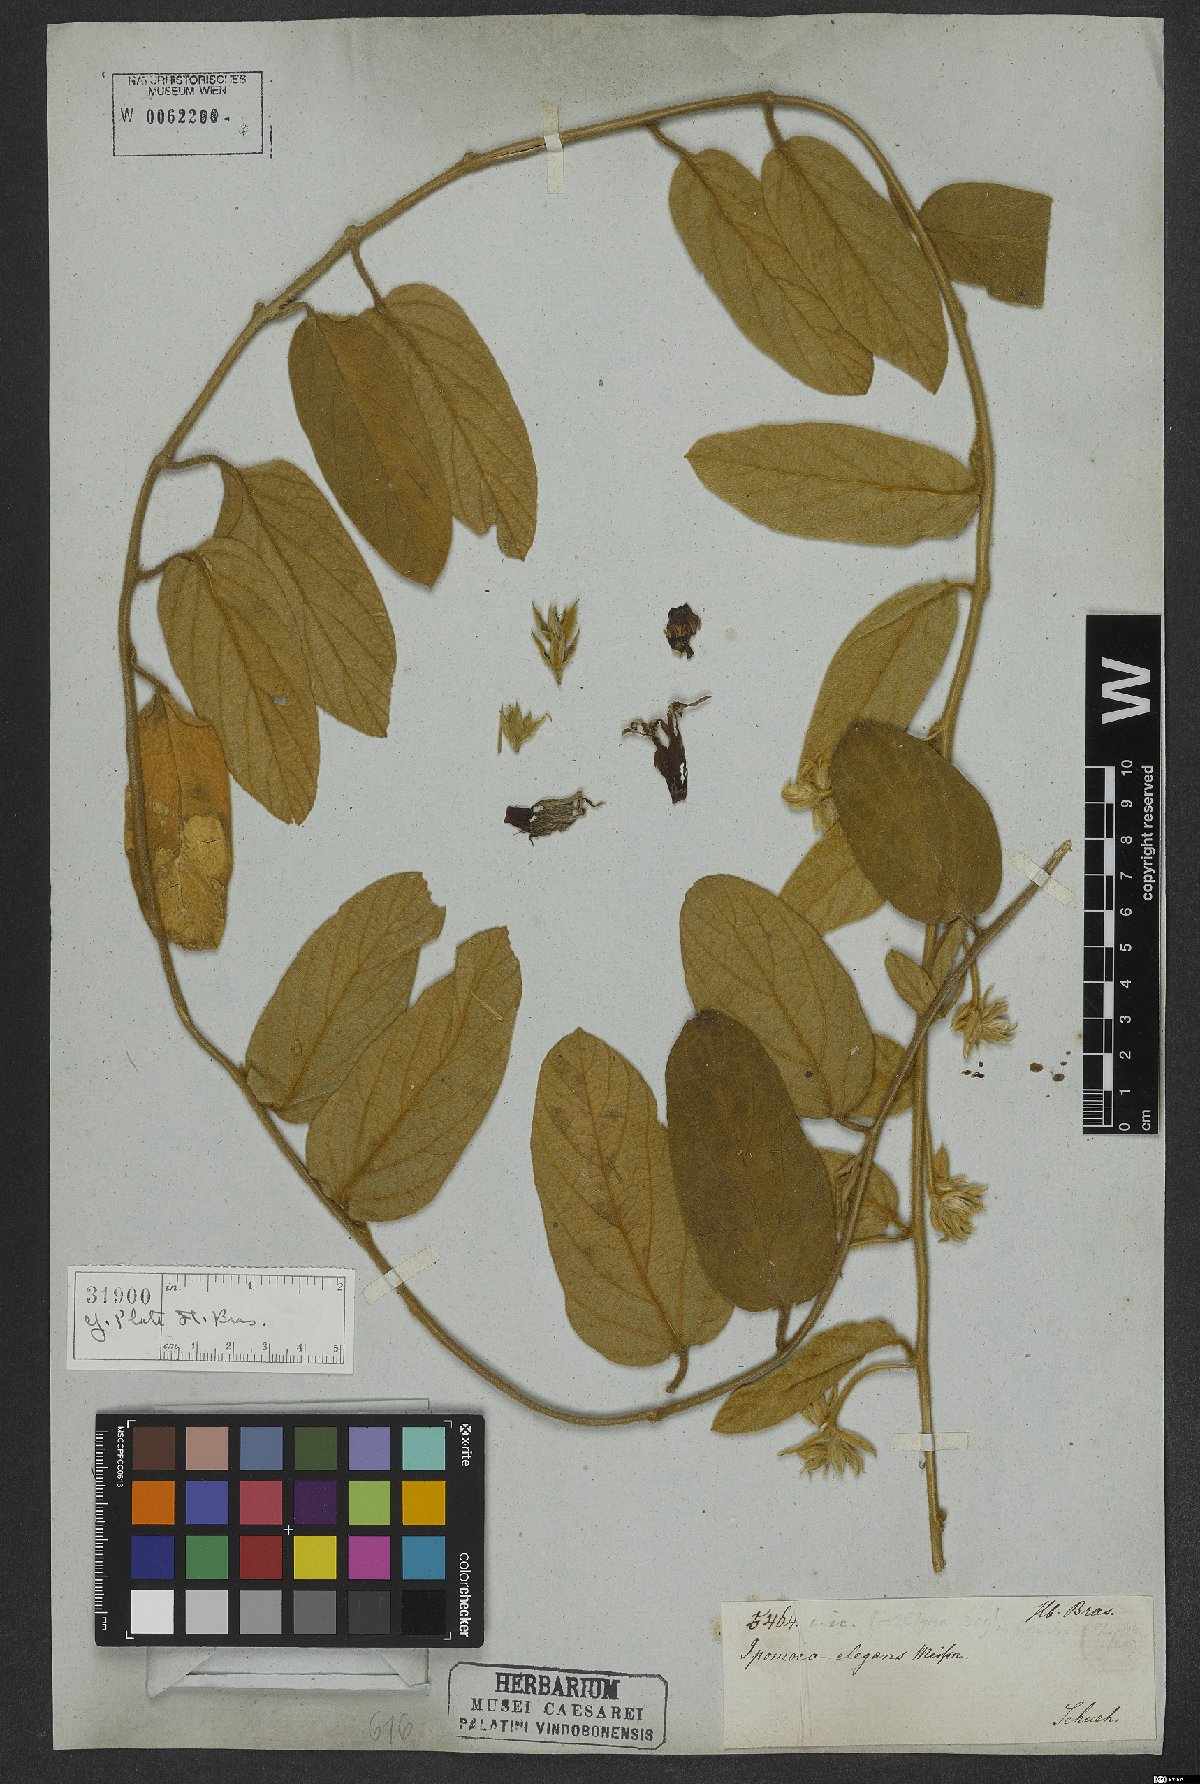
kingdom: Plantae
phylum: Tracheophyta
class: Magnoliopsida
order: Solanales
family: Convolvulaceae
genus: Ipomoea
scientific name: Ipomoea langsdorffii
